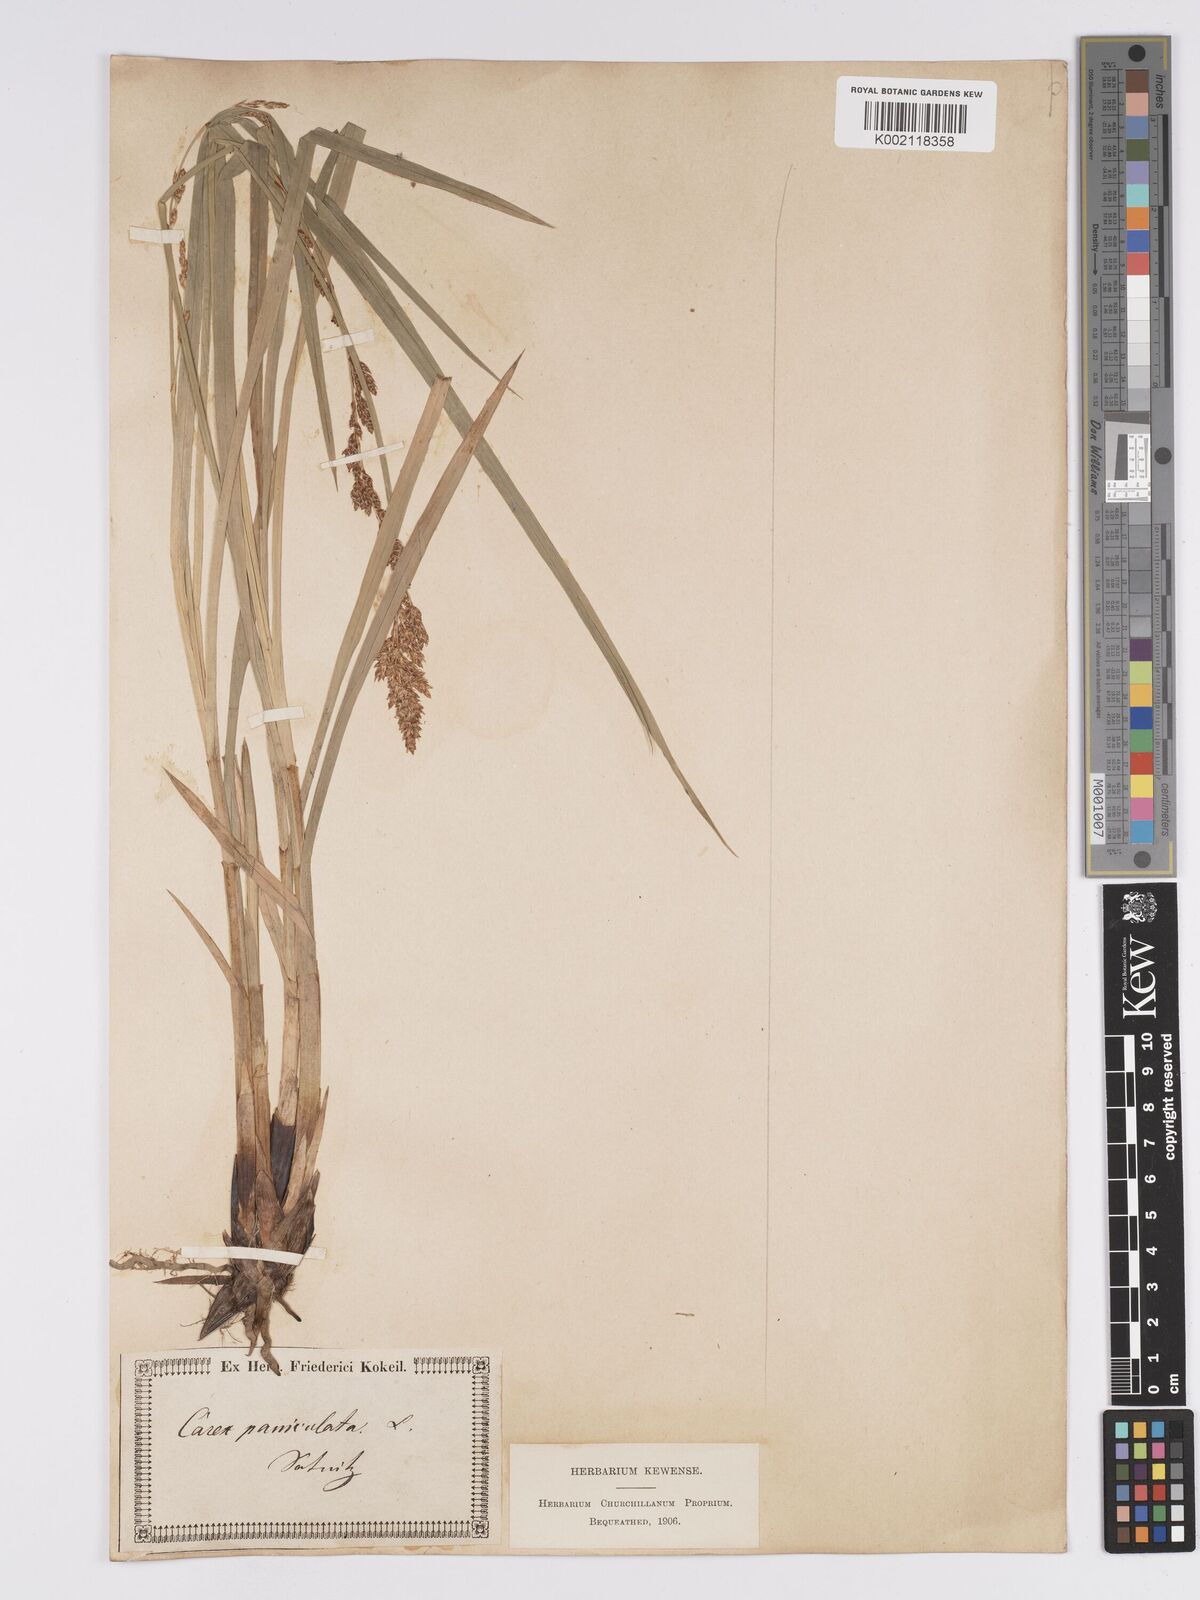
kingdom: Plantae
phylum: Tracheophyta
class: Liliopsida
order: Poales
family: Cyperaceae
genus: Carex
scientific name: Carex paniculata
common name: Greater tussock-sedge
